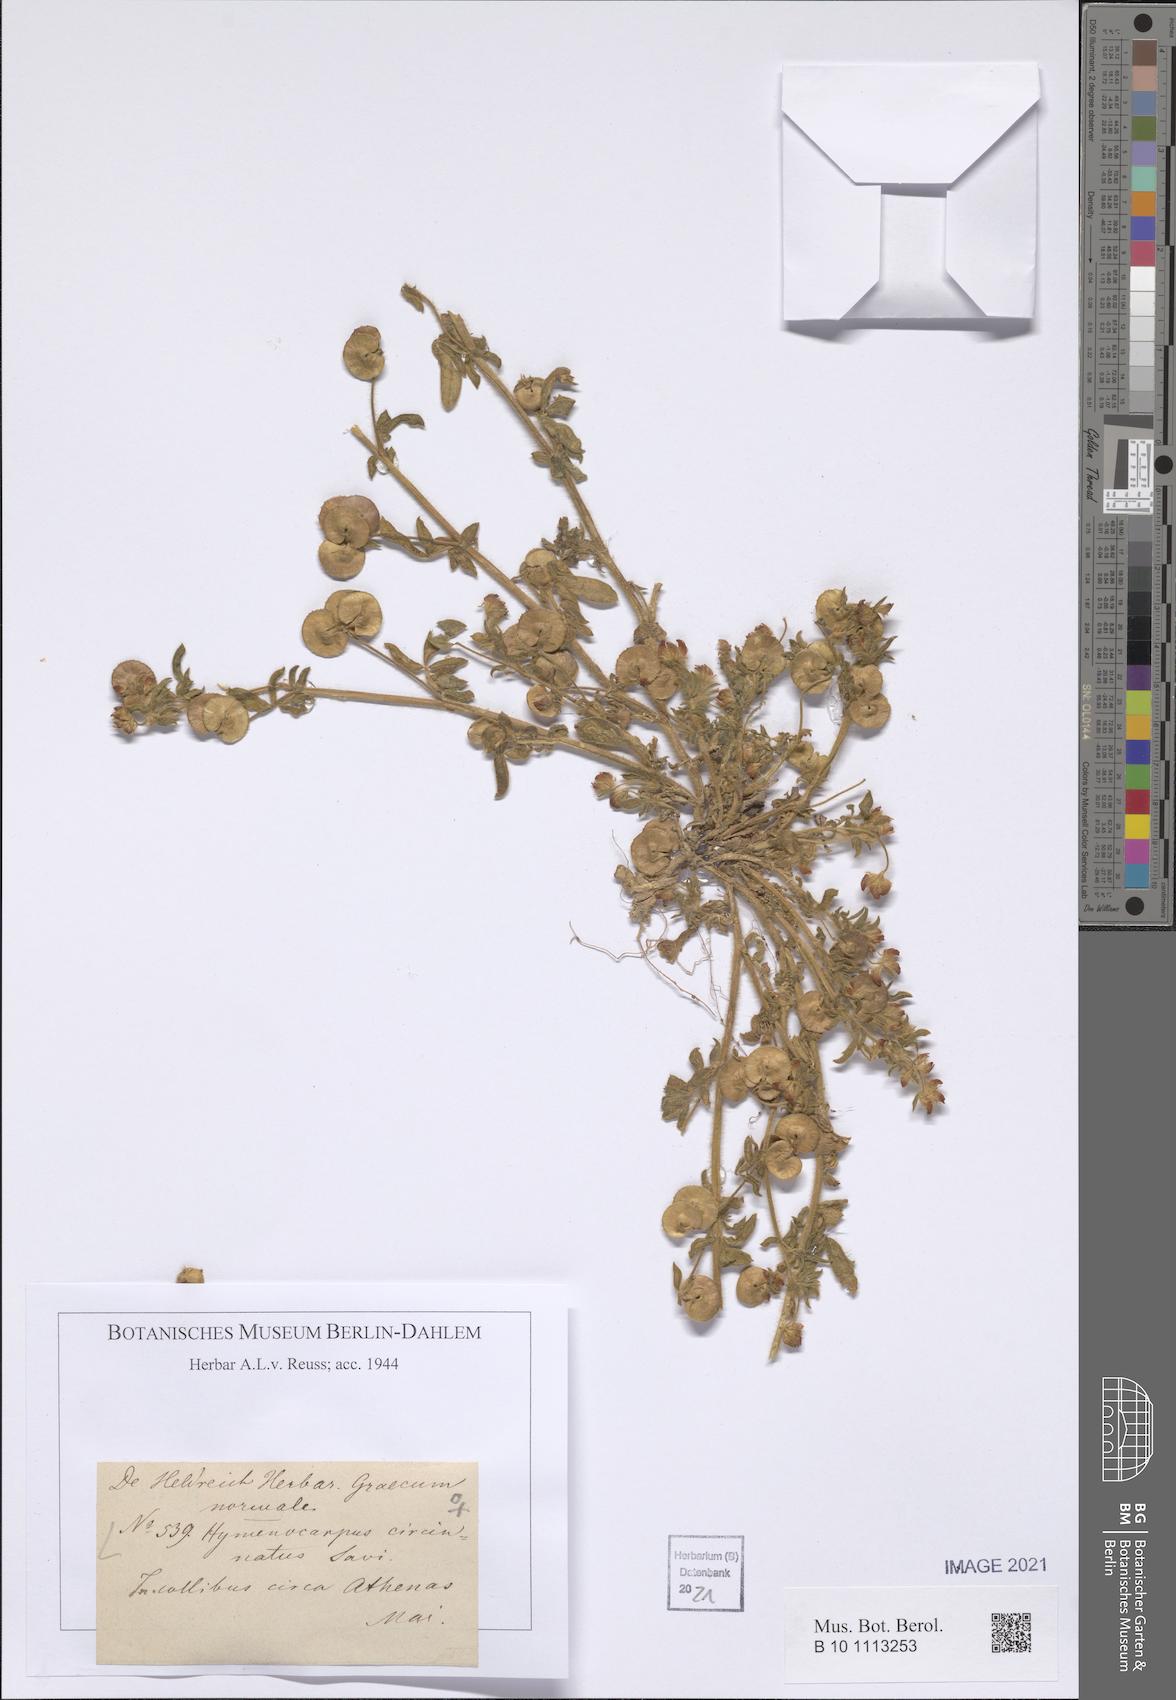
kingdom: Plantae
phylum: Tracheophyta
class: Magnoliopsida
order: Fabales
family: Fabaceae
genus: Anthyllis
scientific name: Anthyllis circinnata
